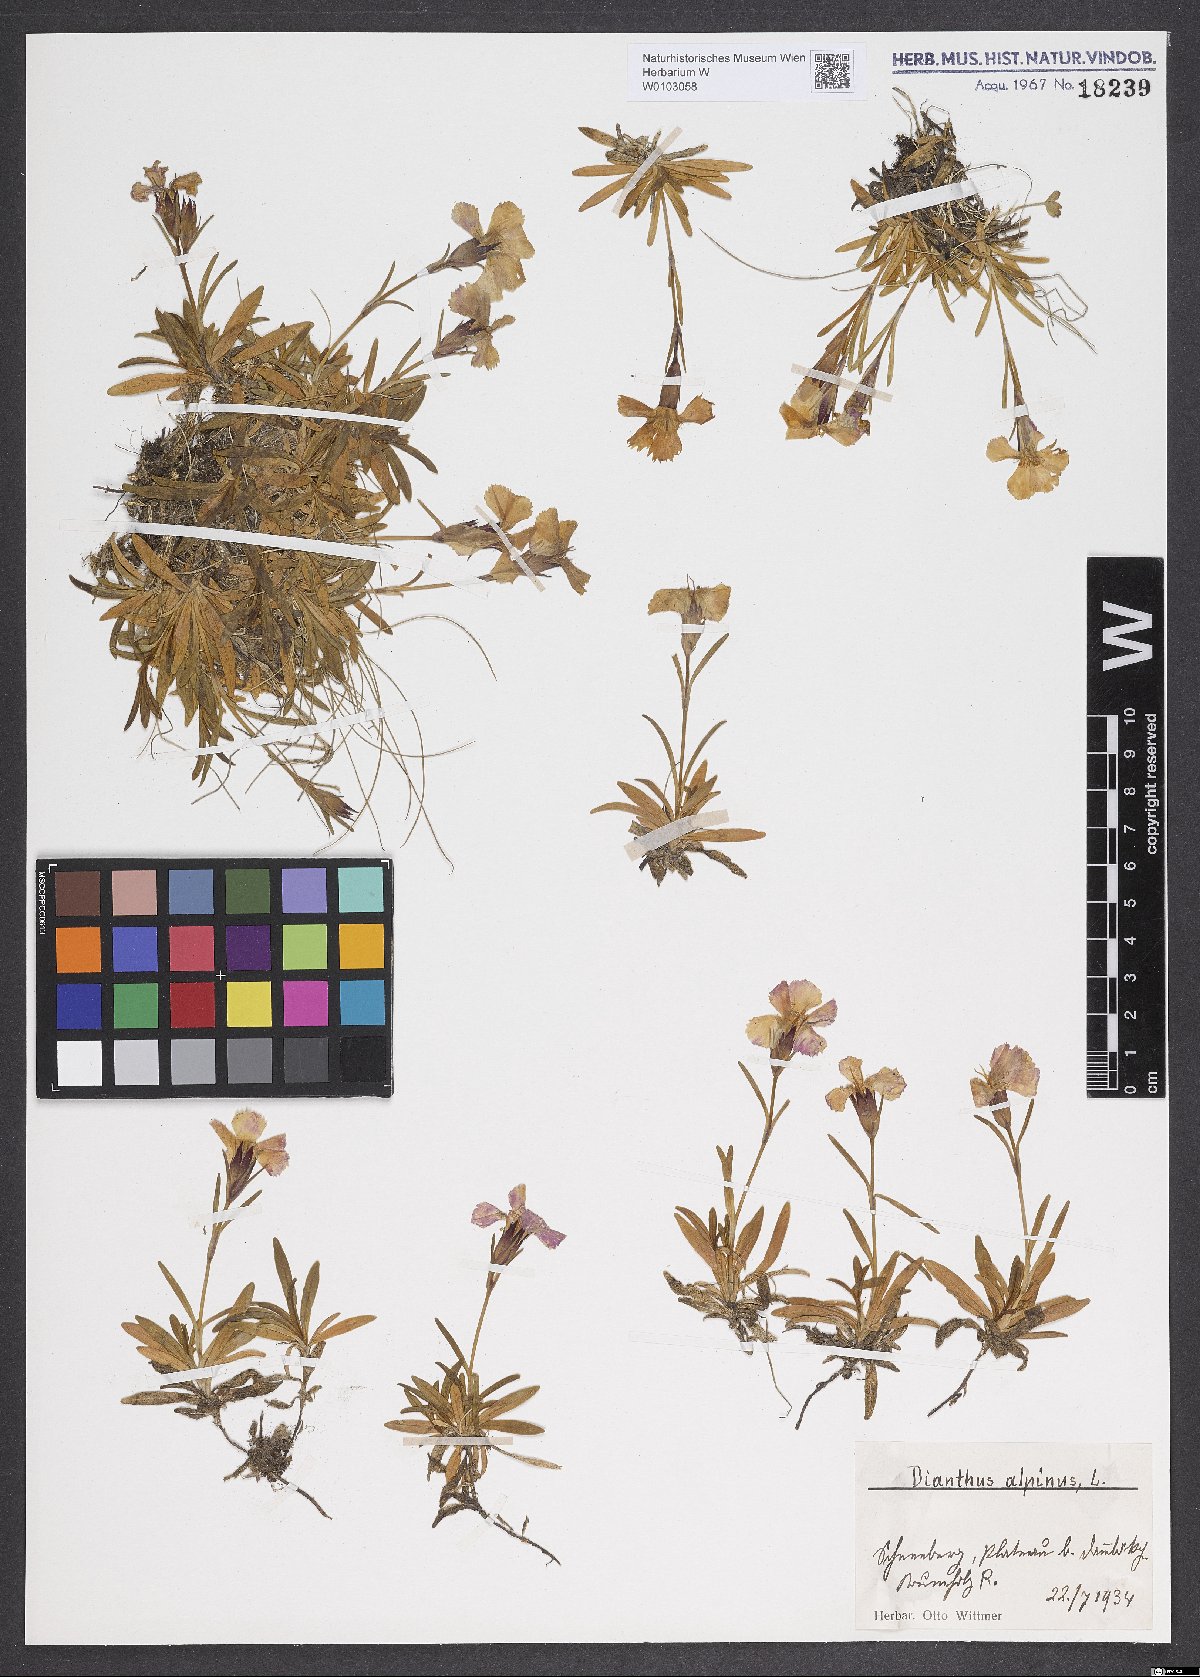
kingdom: Plantae
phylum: Tracheophyta
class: Magnoliopsida
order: Caryophyllales
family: Caryophyllaceae
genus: Dianthus
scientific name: Dianthus alpinus
